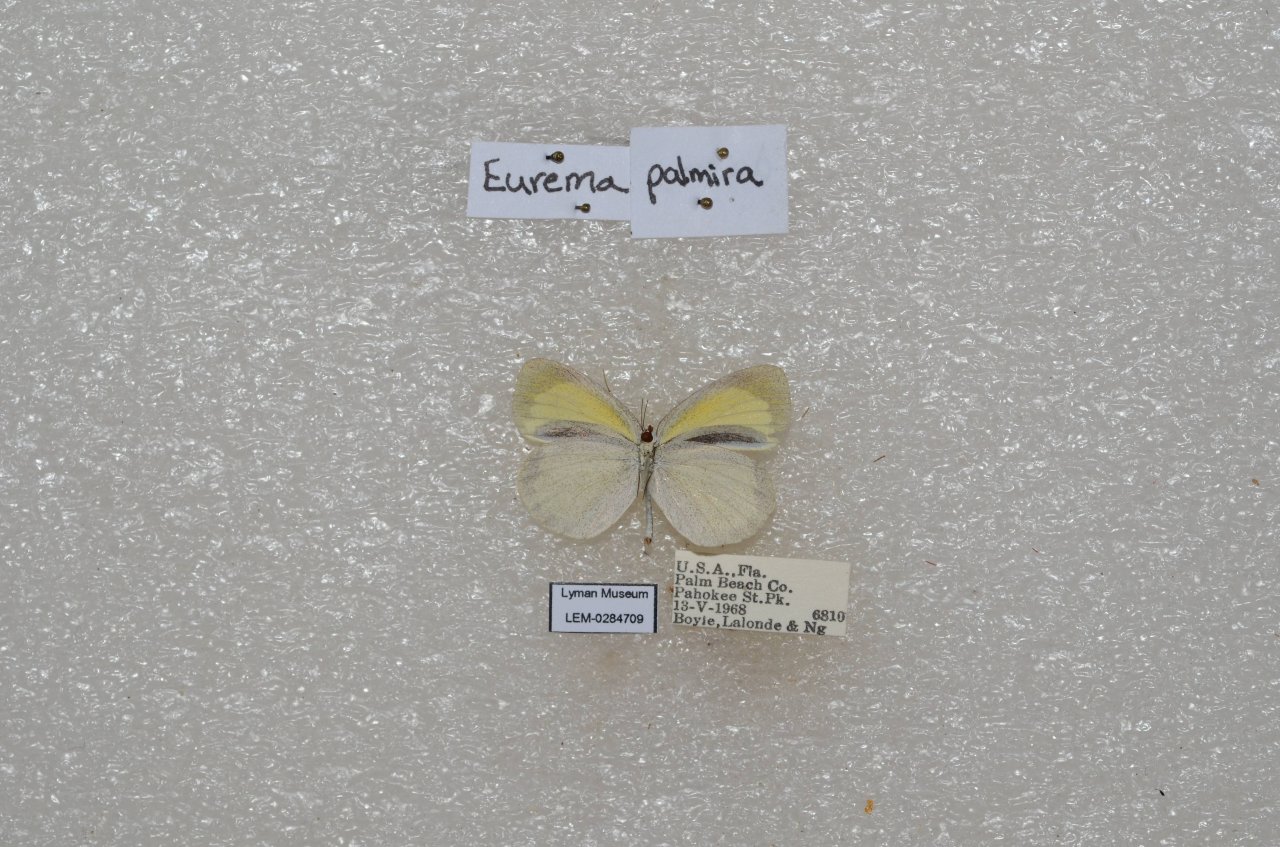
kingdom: Animalia
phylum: Arthropoda
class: Insecta
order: Lepidoptera
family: Pieridae
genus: Eurema
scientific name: Eurema daira
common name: Barred Yellow
